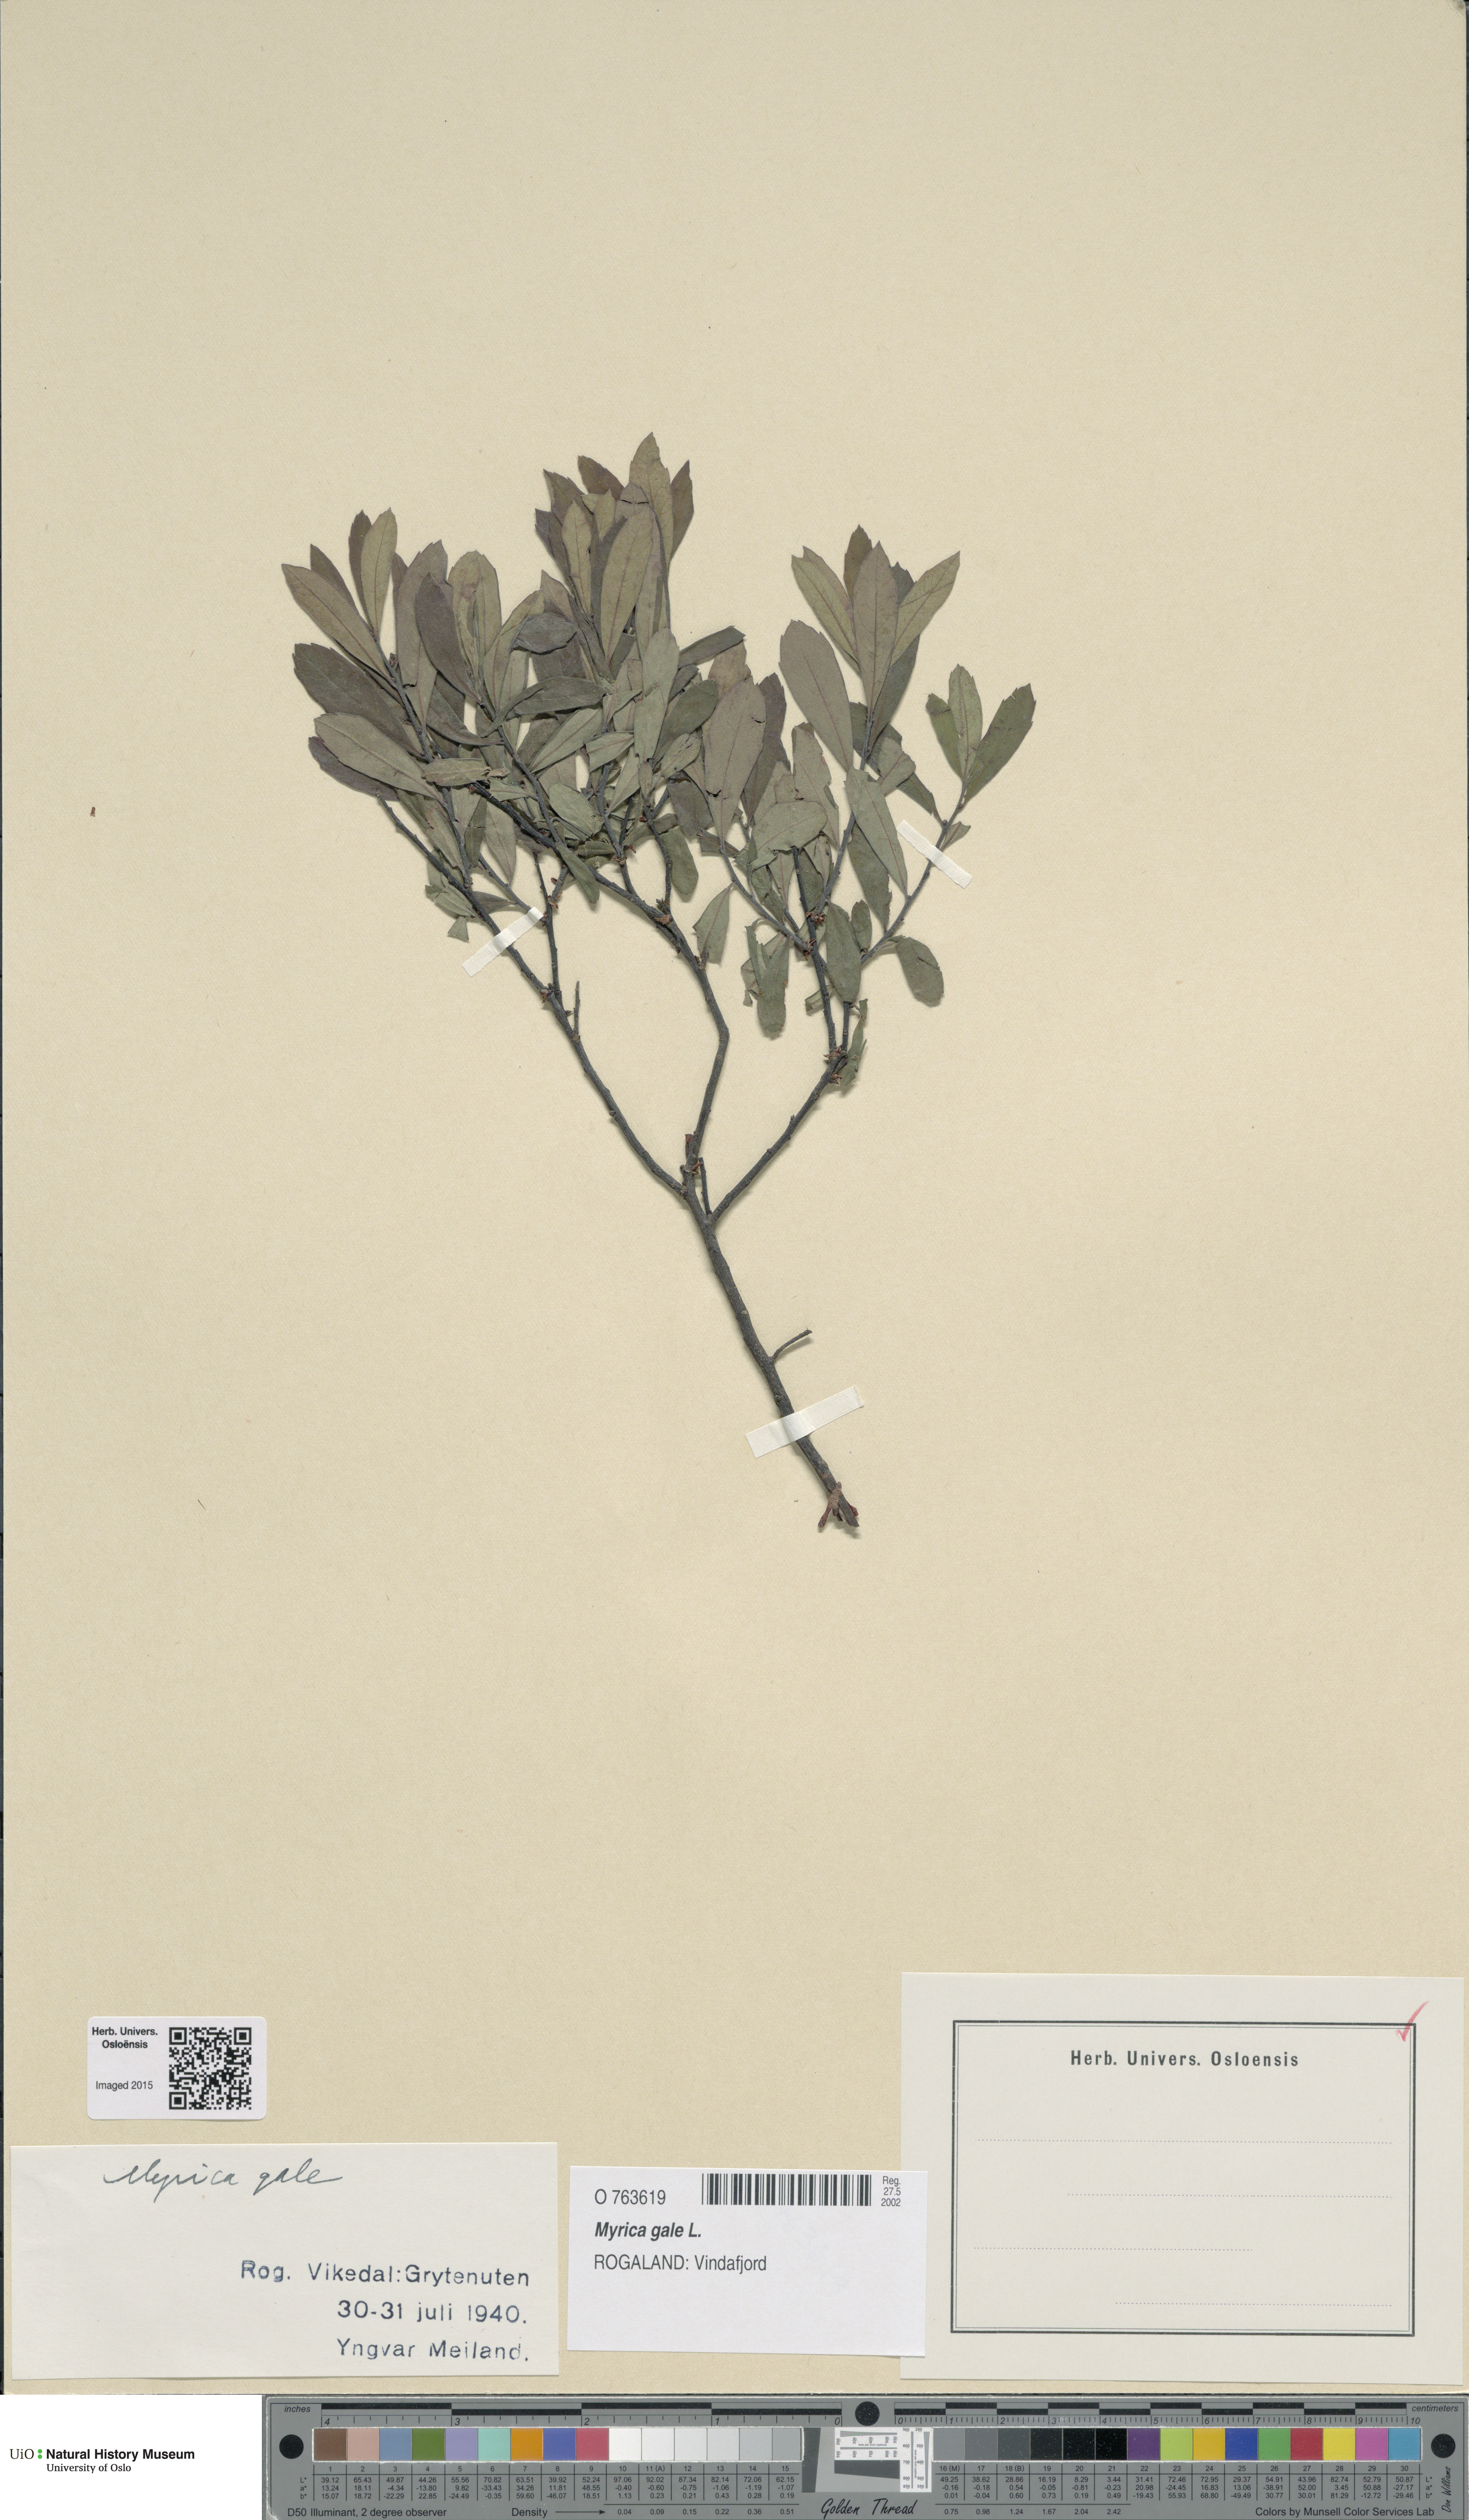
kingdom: Plantae
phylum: Tracheophyta
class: Magnoliopsida
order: Fagales
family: Myricaceae
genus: Myrica
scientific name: Myrica gale
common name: Sweet gale
